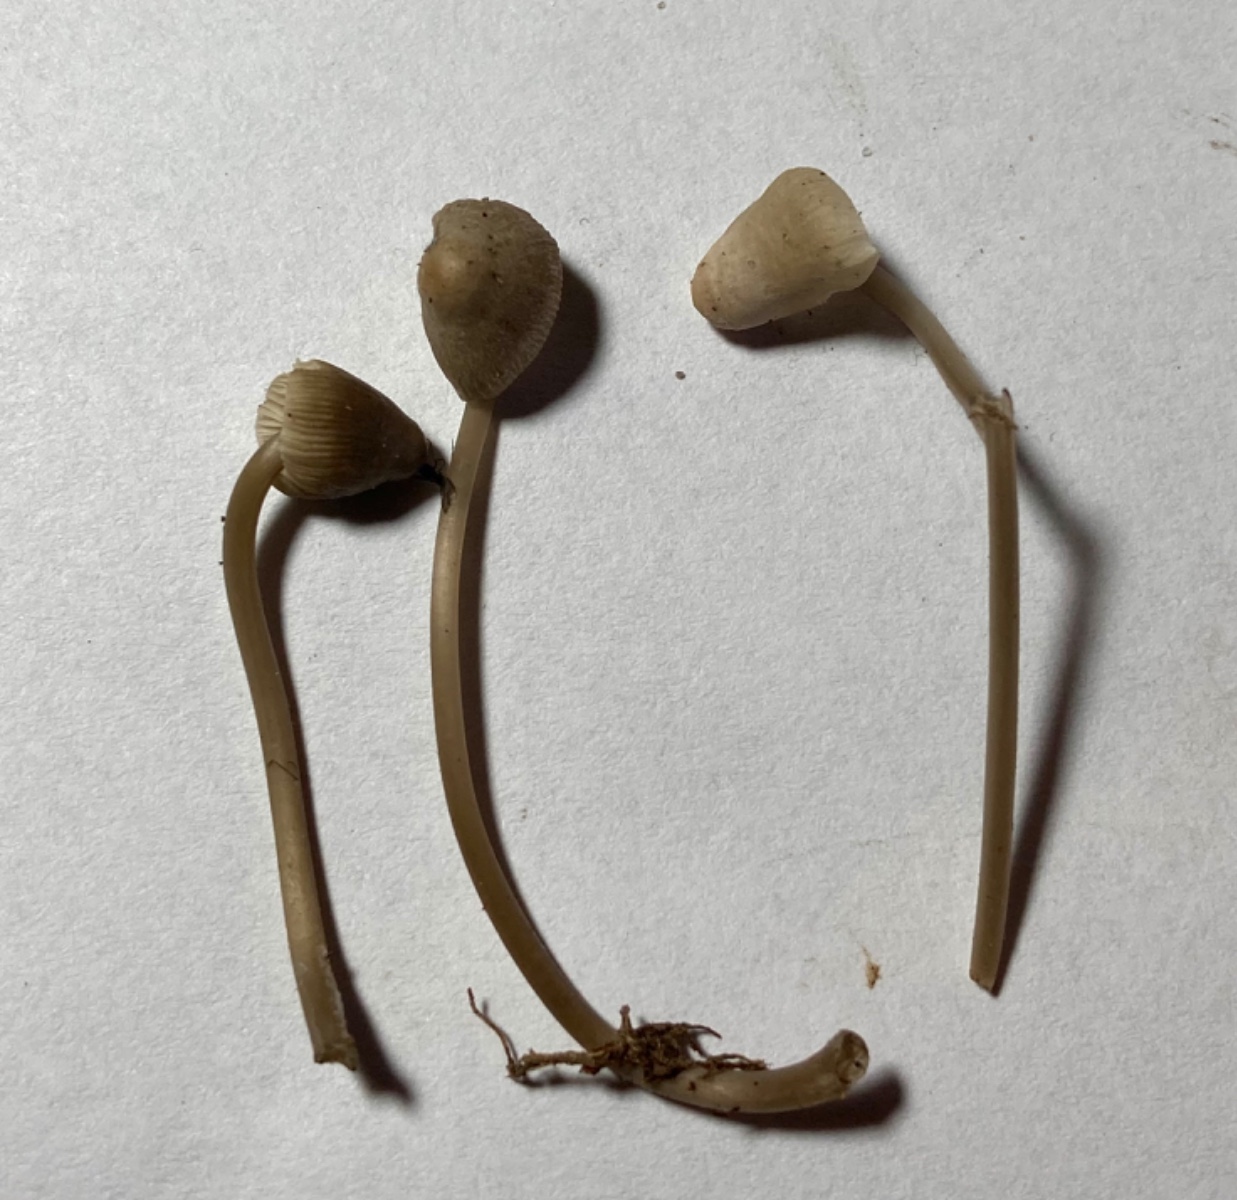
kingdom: Fungi
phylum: Basidiomycota
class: Agaricomycetes
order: Agaricales
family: Mycenaceae
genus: Mycena
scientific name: Mycena arcangeliana
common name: oliven-huesvamp
